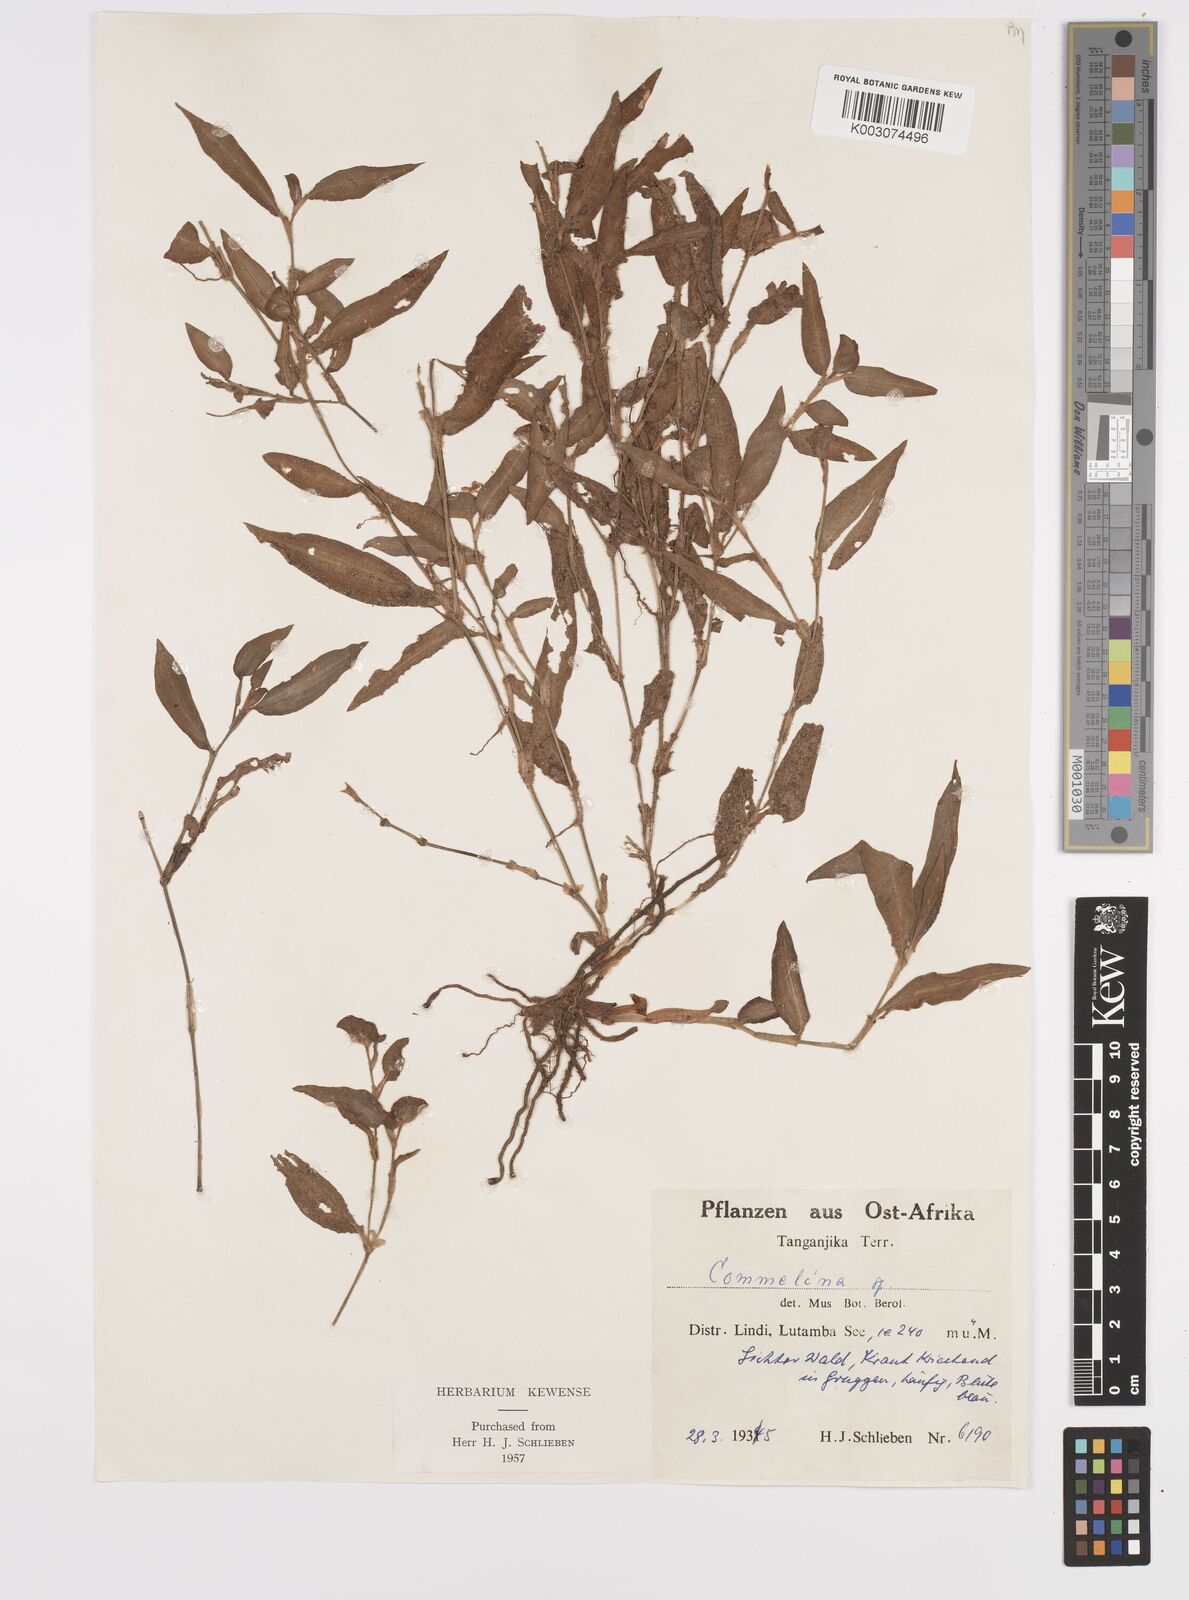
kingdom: Plantae
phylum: Tracheophyta
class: Liliopsida
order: Commelinales
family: Commelinaceae
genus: Commelina
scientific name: Commelina
